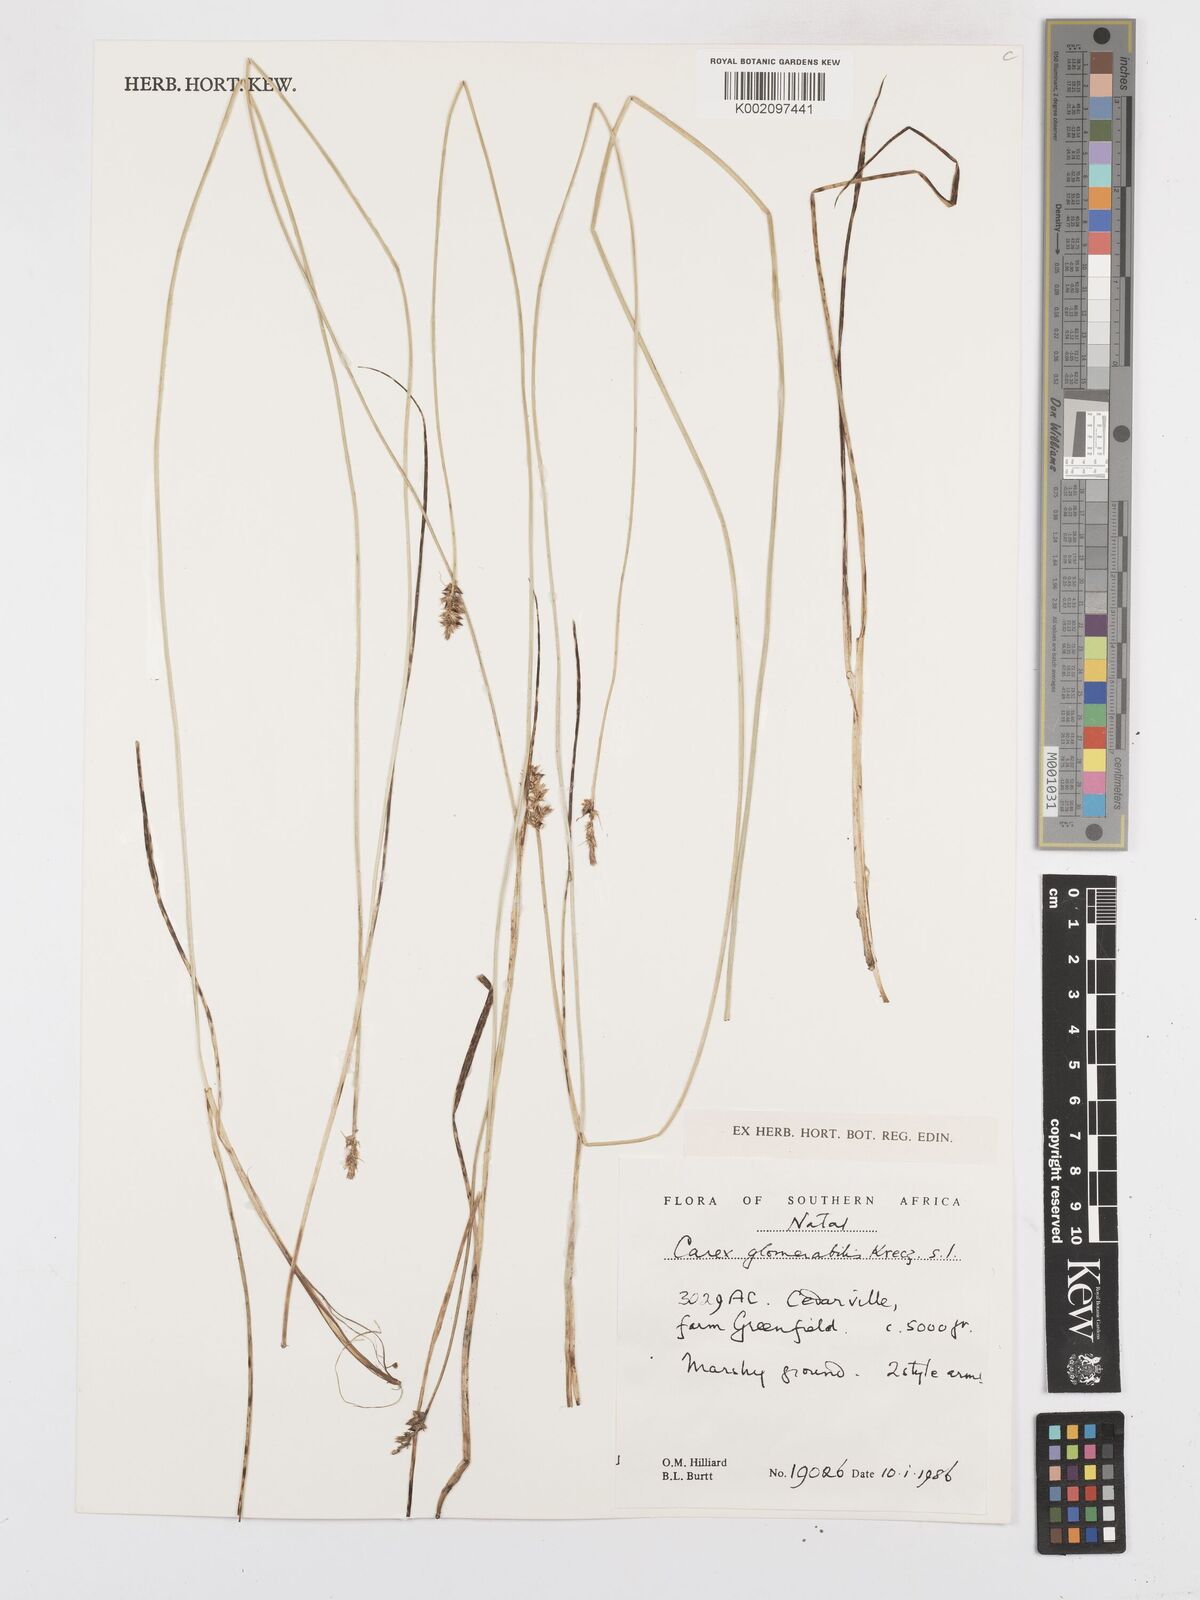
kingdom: Plantae
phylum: Tracheophyta
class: Liliopsida
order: Poales
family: Cyperaceae
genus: Carex
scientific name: Carex glomerata
